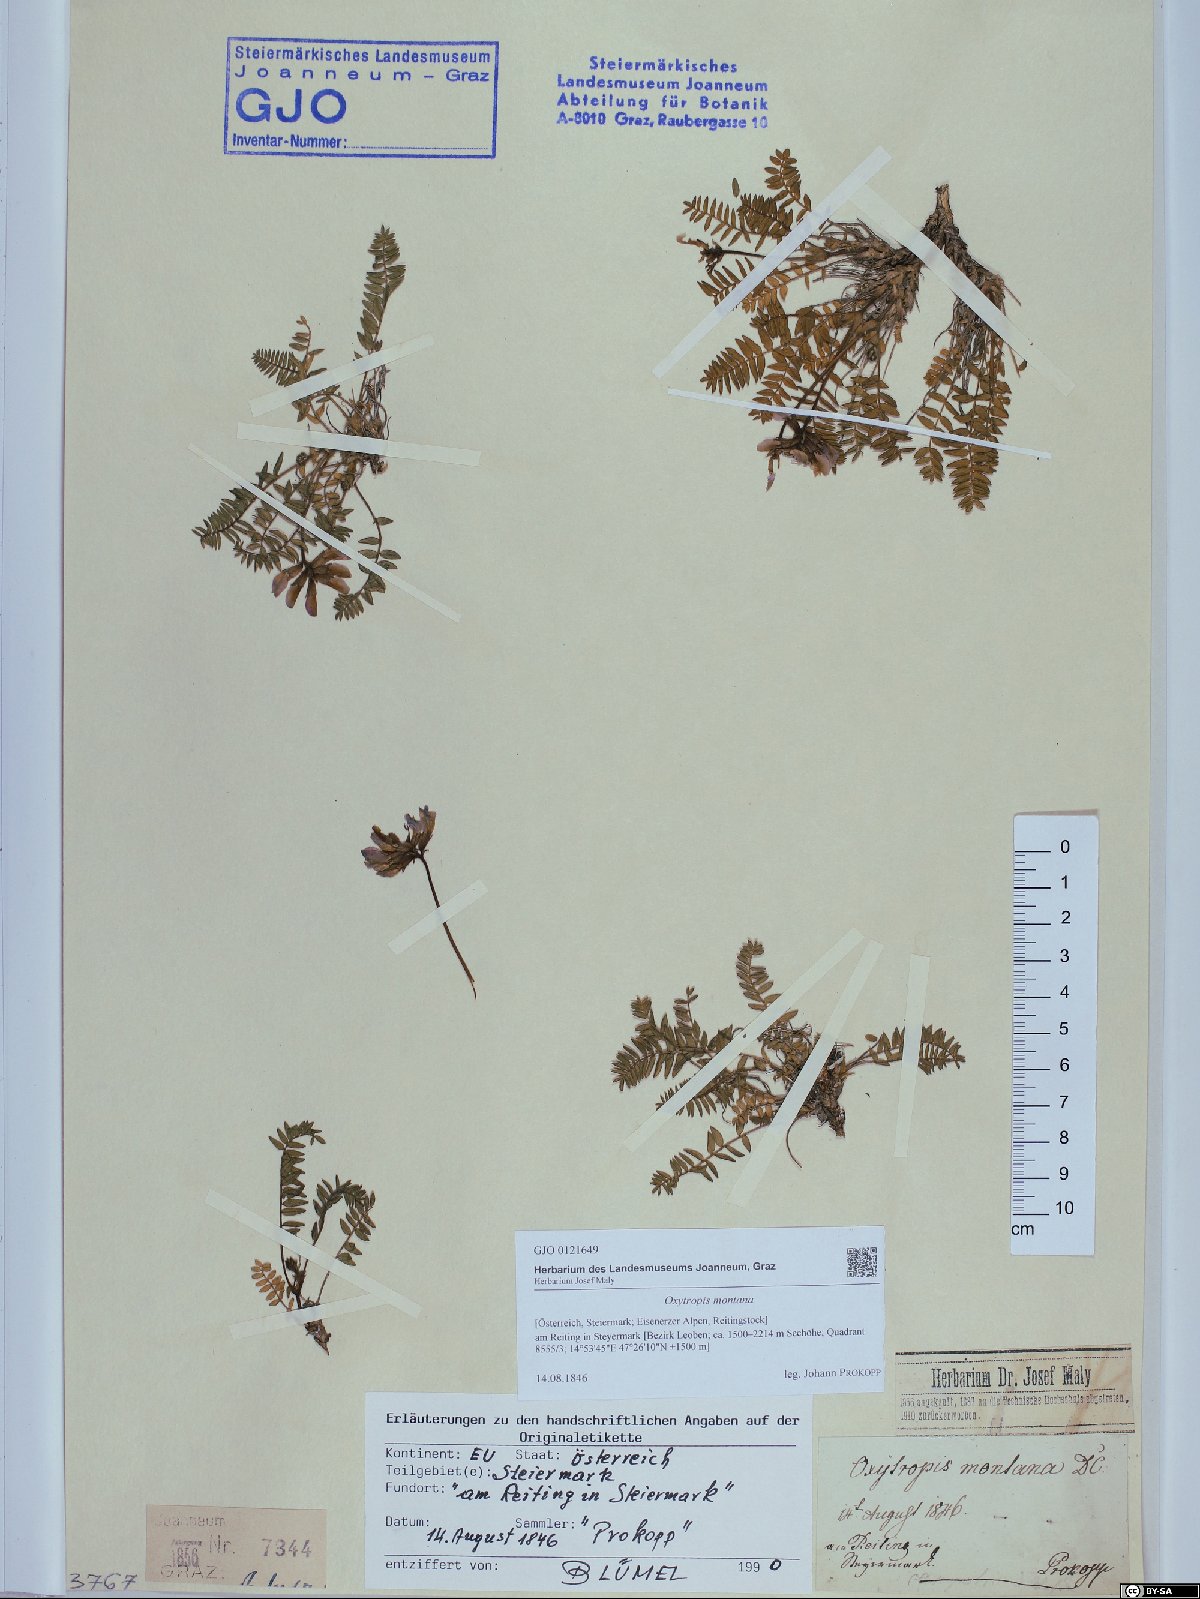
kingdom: Plantae
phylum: Tracheophyta
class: Magnoliopsida
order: Fabales
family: Fabaceae
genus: Oxytropis
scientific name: Oxytropis montana
